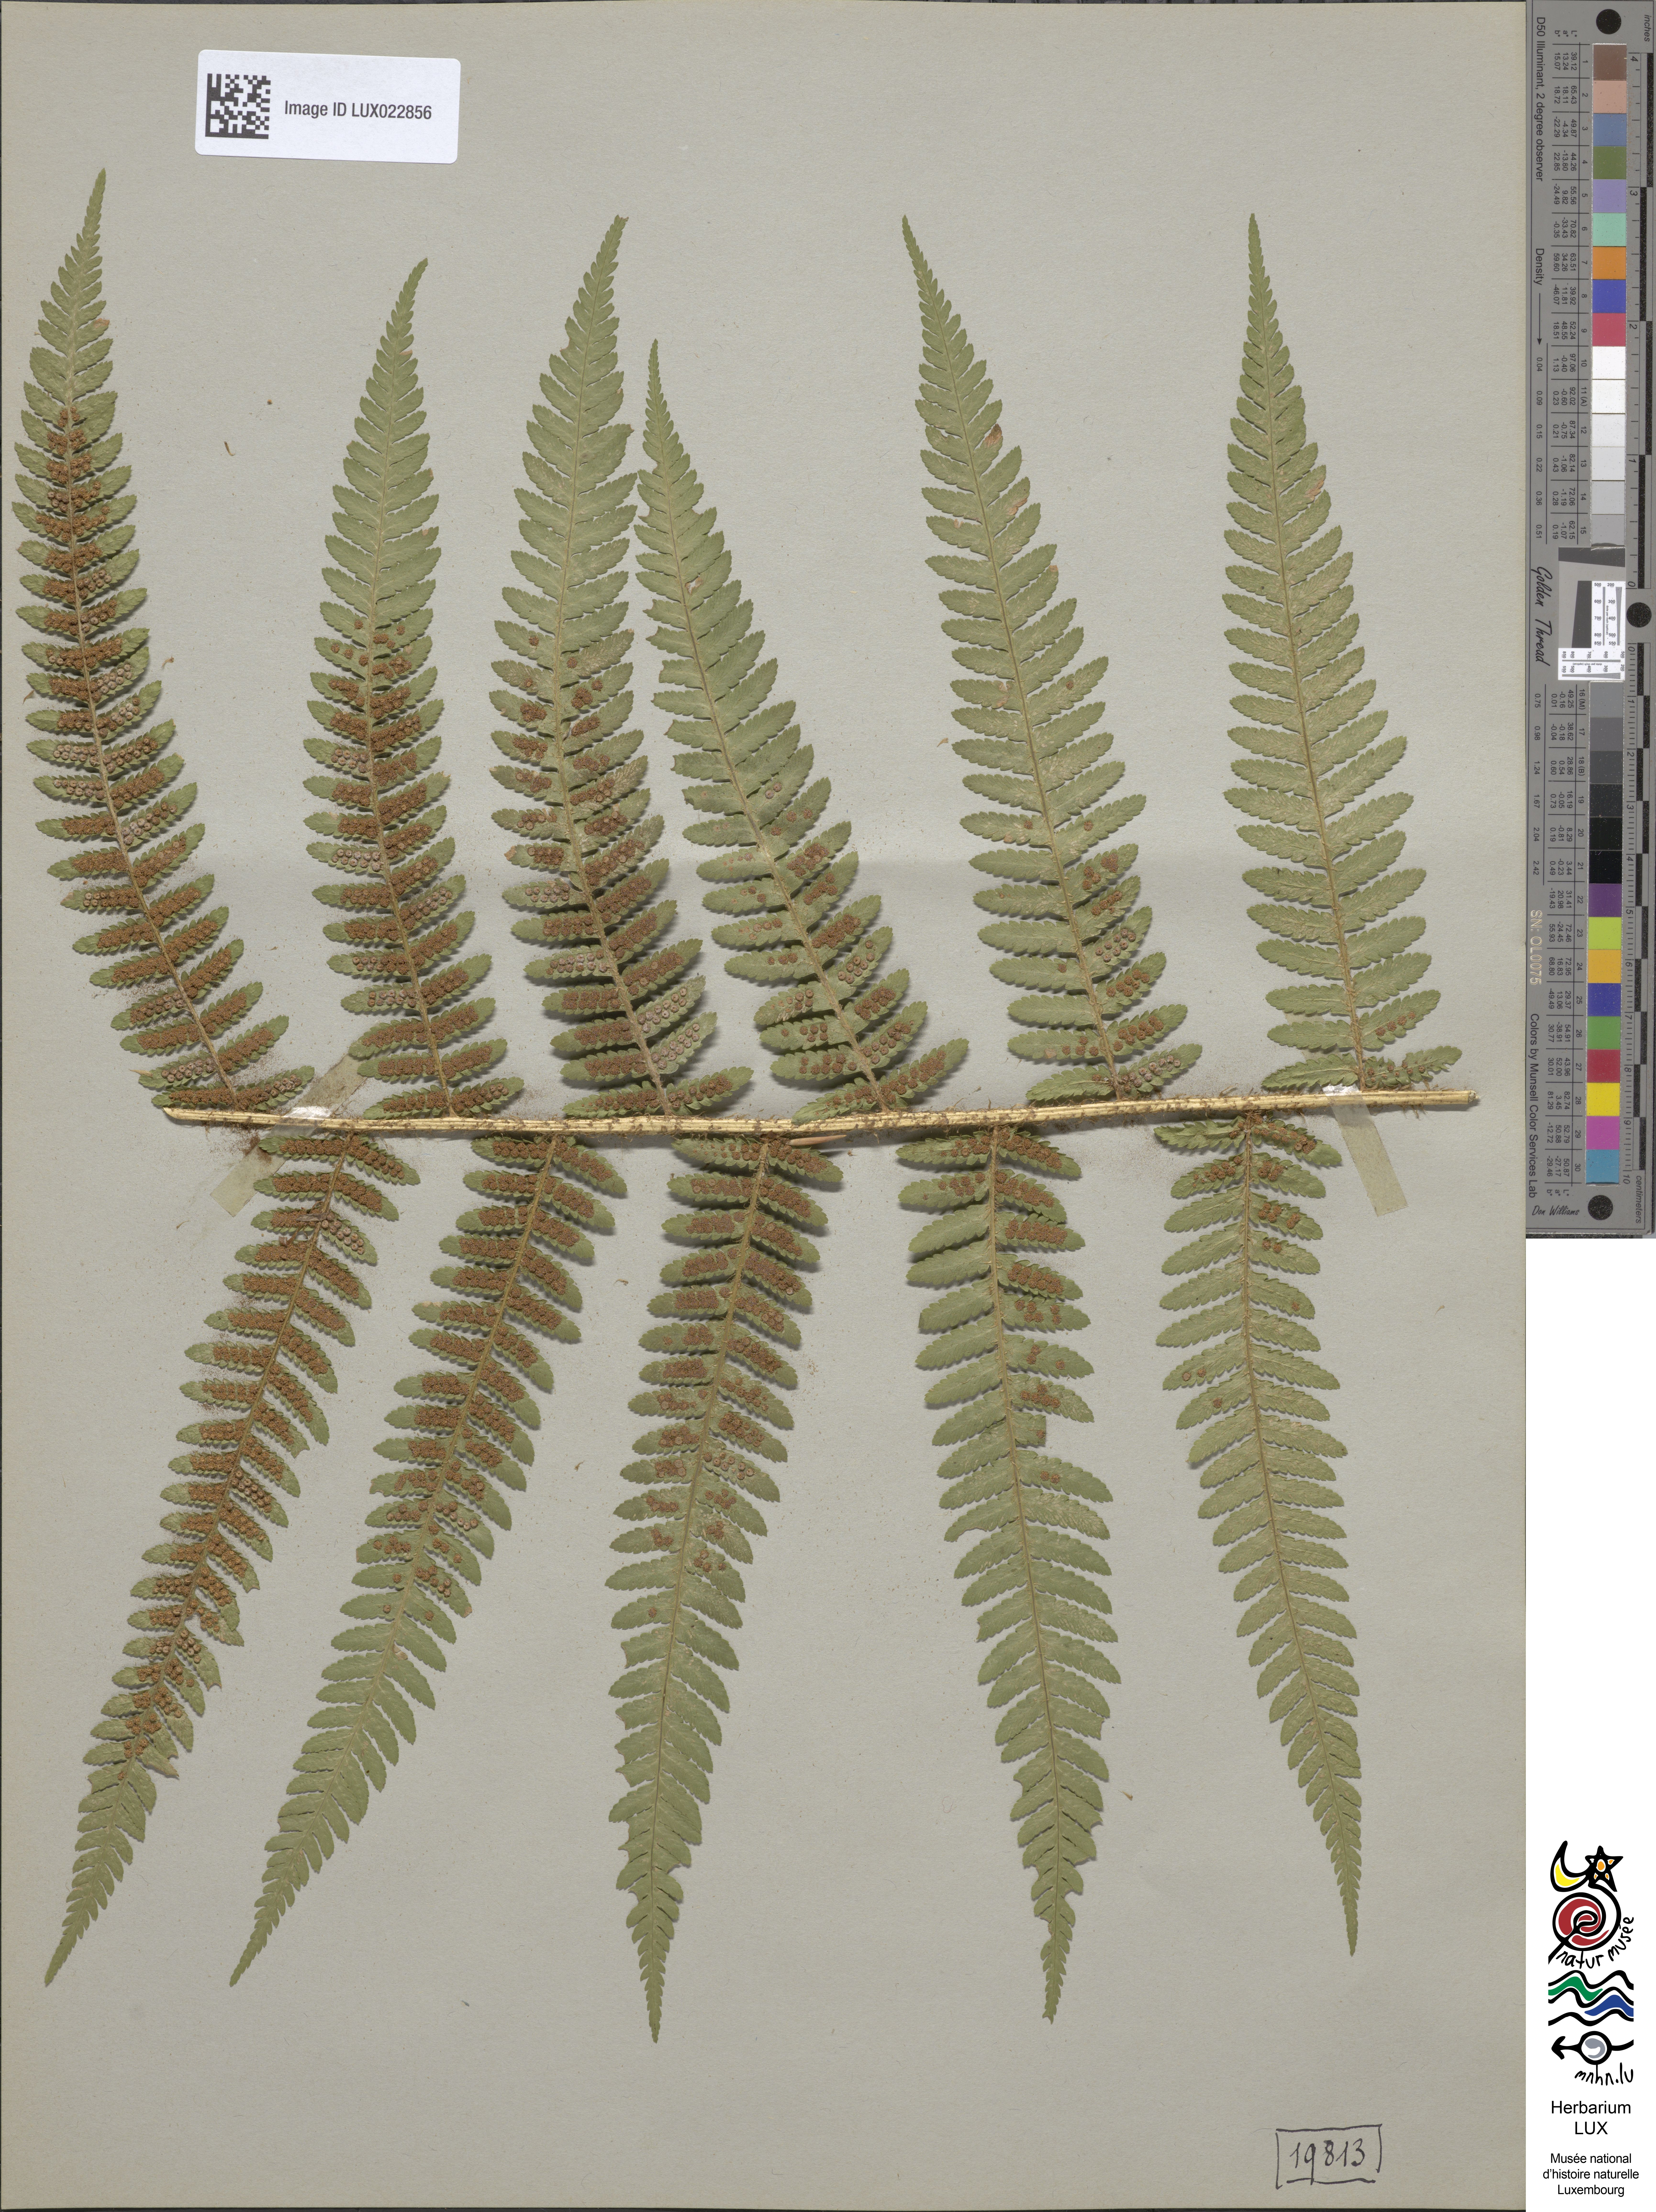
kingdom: Plantae
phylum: Tracheophyta
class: Polypodiopsida
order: Polypodiales
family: Dryopteridaceae
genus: Dryopteris
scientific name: Dryopteris filix-mas
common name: Male fern
